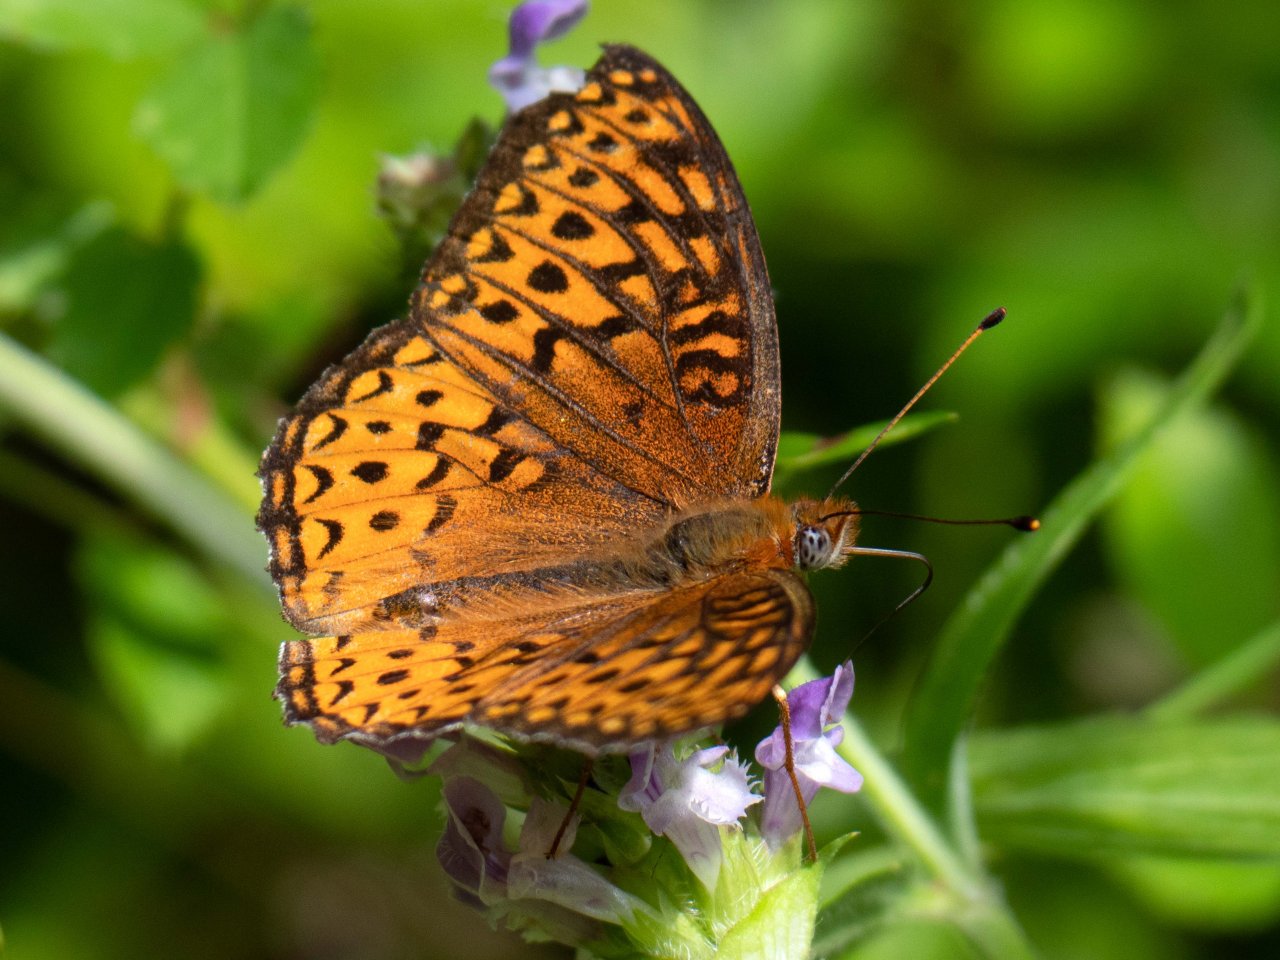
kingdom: Animalia
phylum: Arthropoda
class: Insecta
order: Lepidoptera
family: Nymphalidae
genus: Speyeria
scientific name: Speyeria atlantis
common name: Atlantis Fritillary
